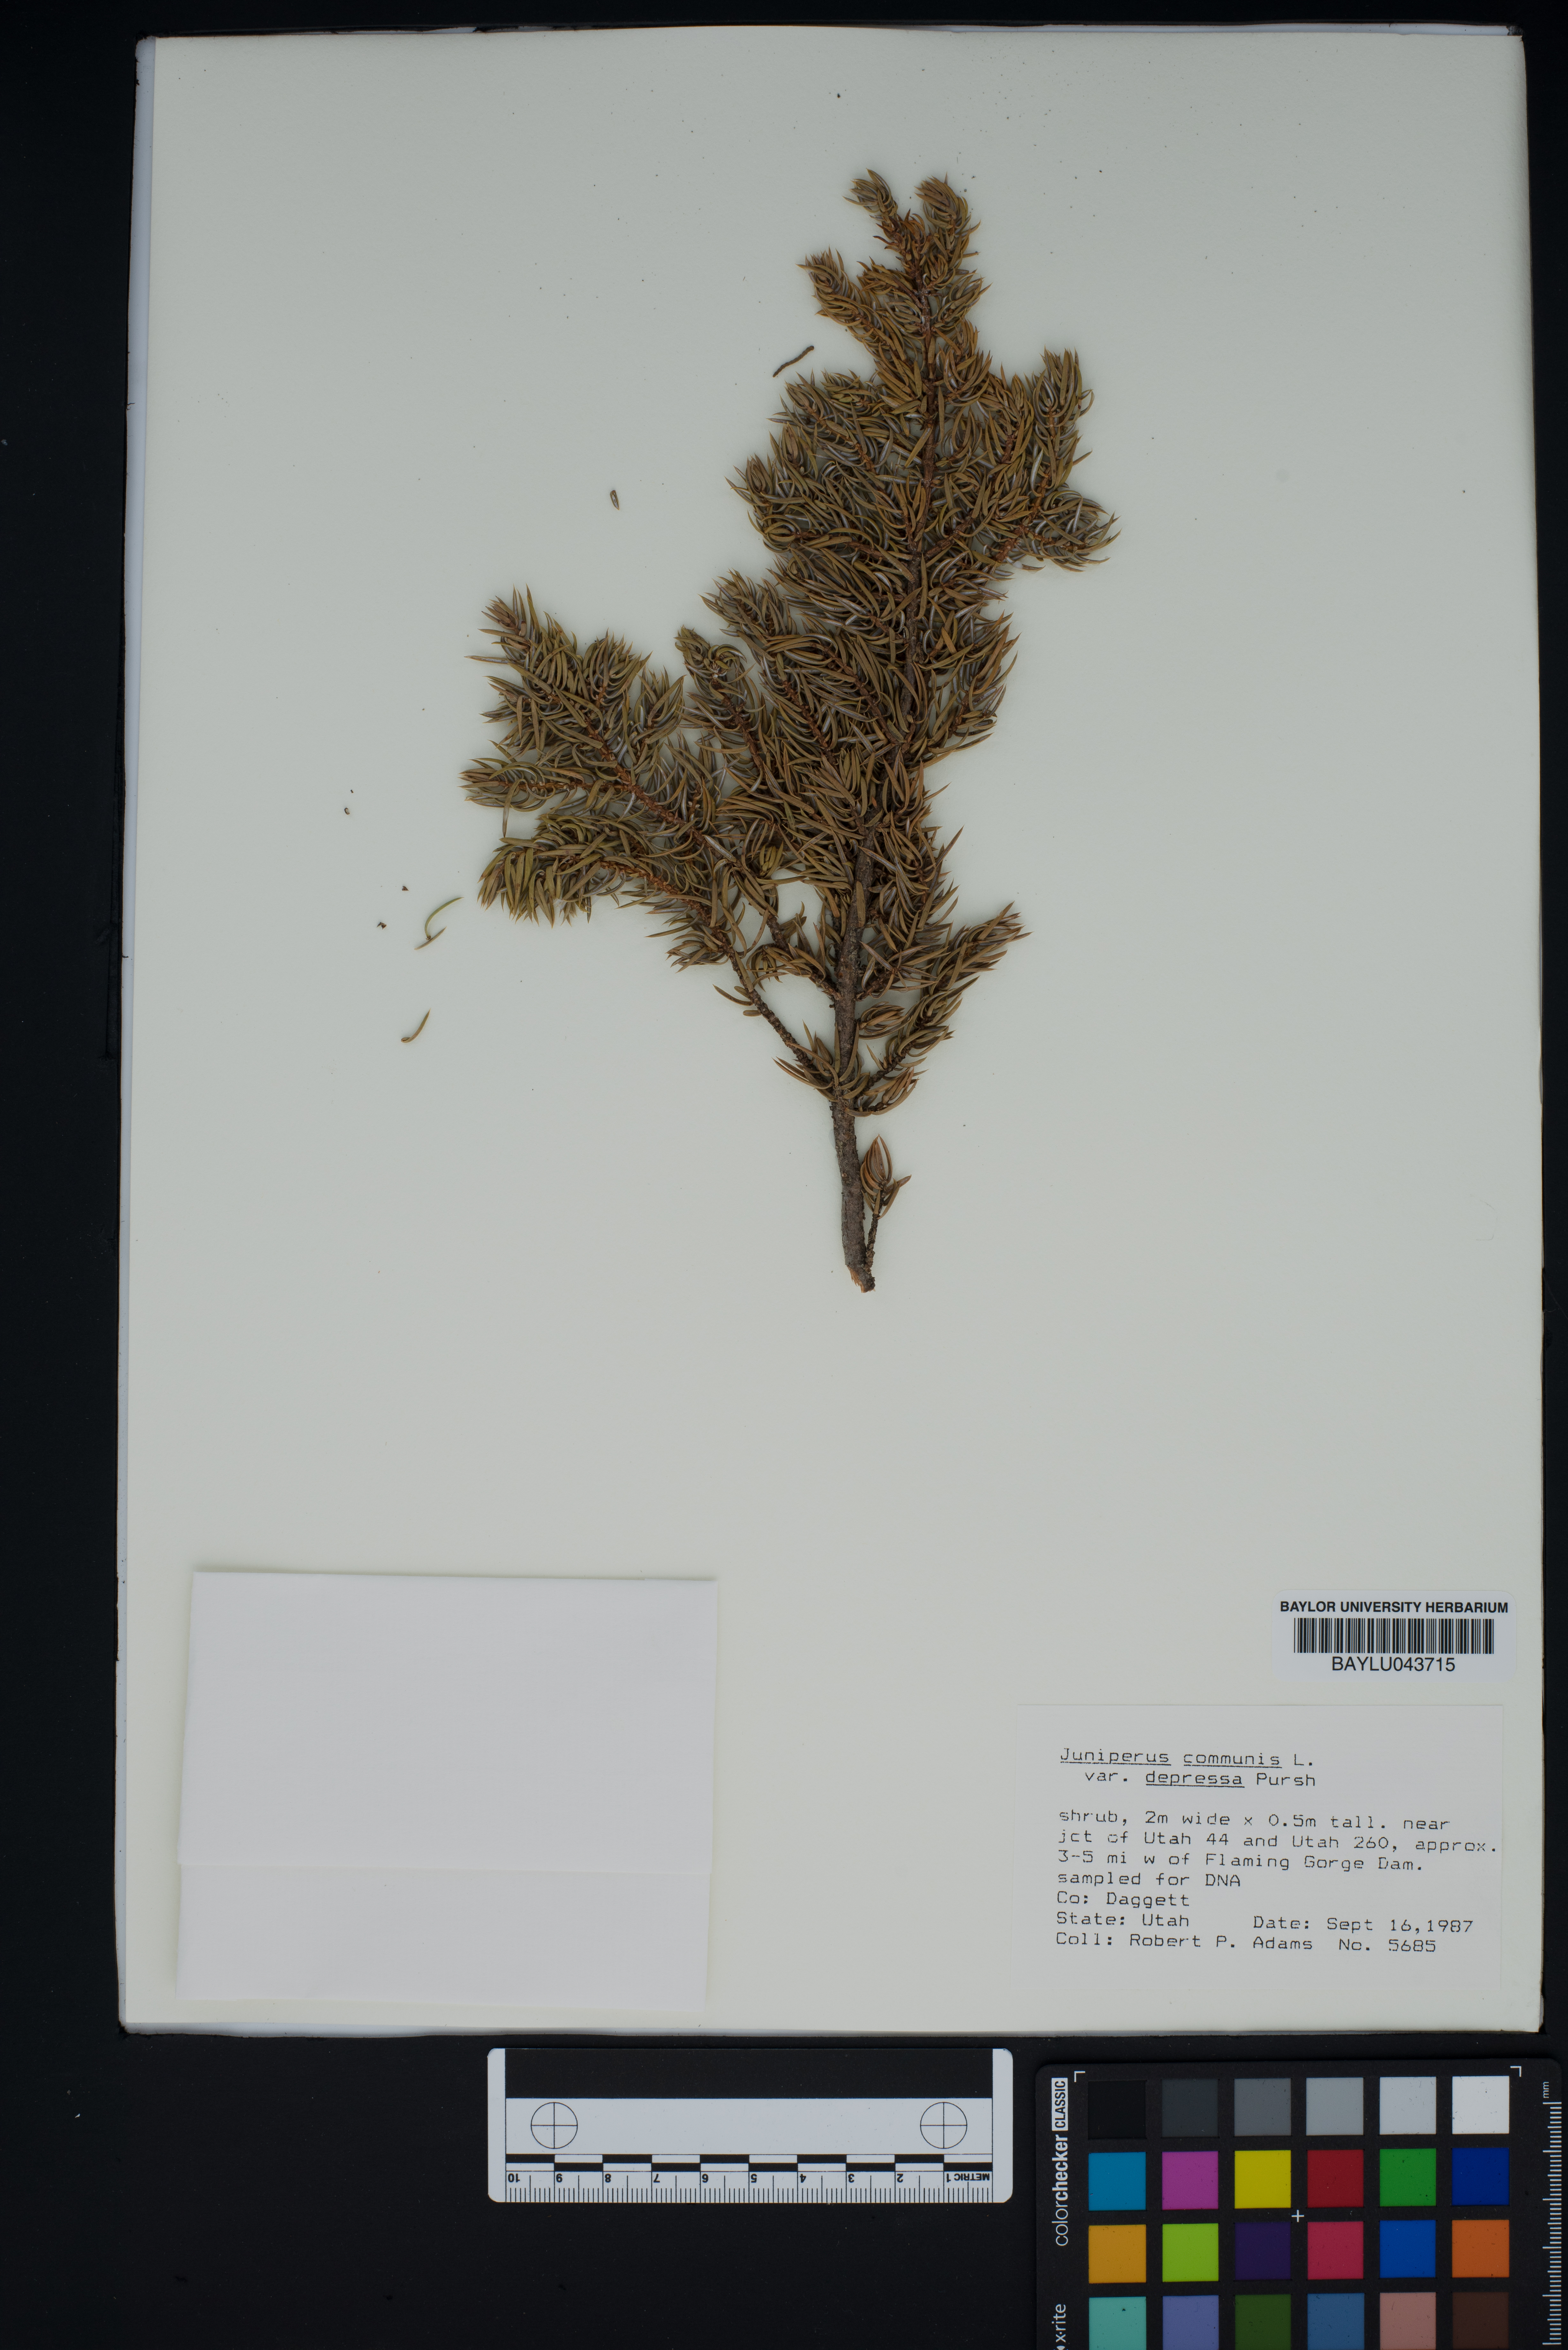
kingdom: Plantae
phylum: Tracheophyta
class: Pinopsida
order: Pinales
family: Cupressaceae
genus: Juniperus
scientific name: Juniperus communis
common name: Common juniper
